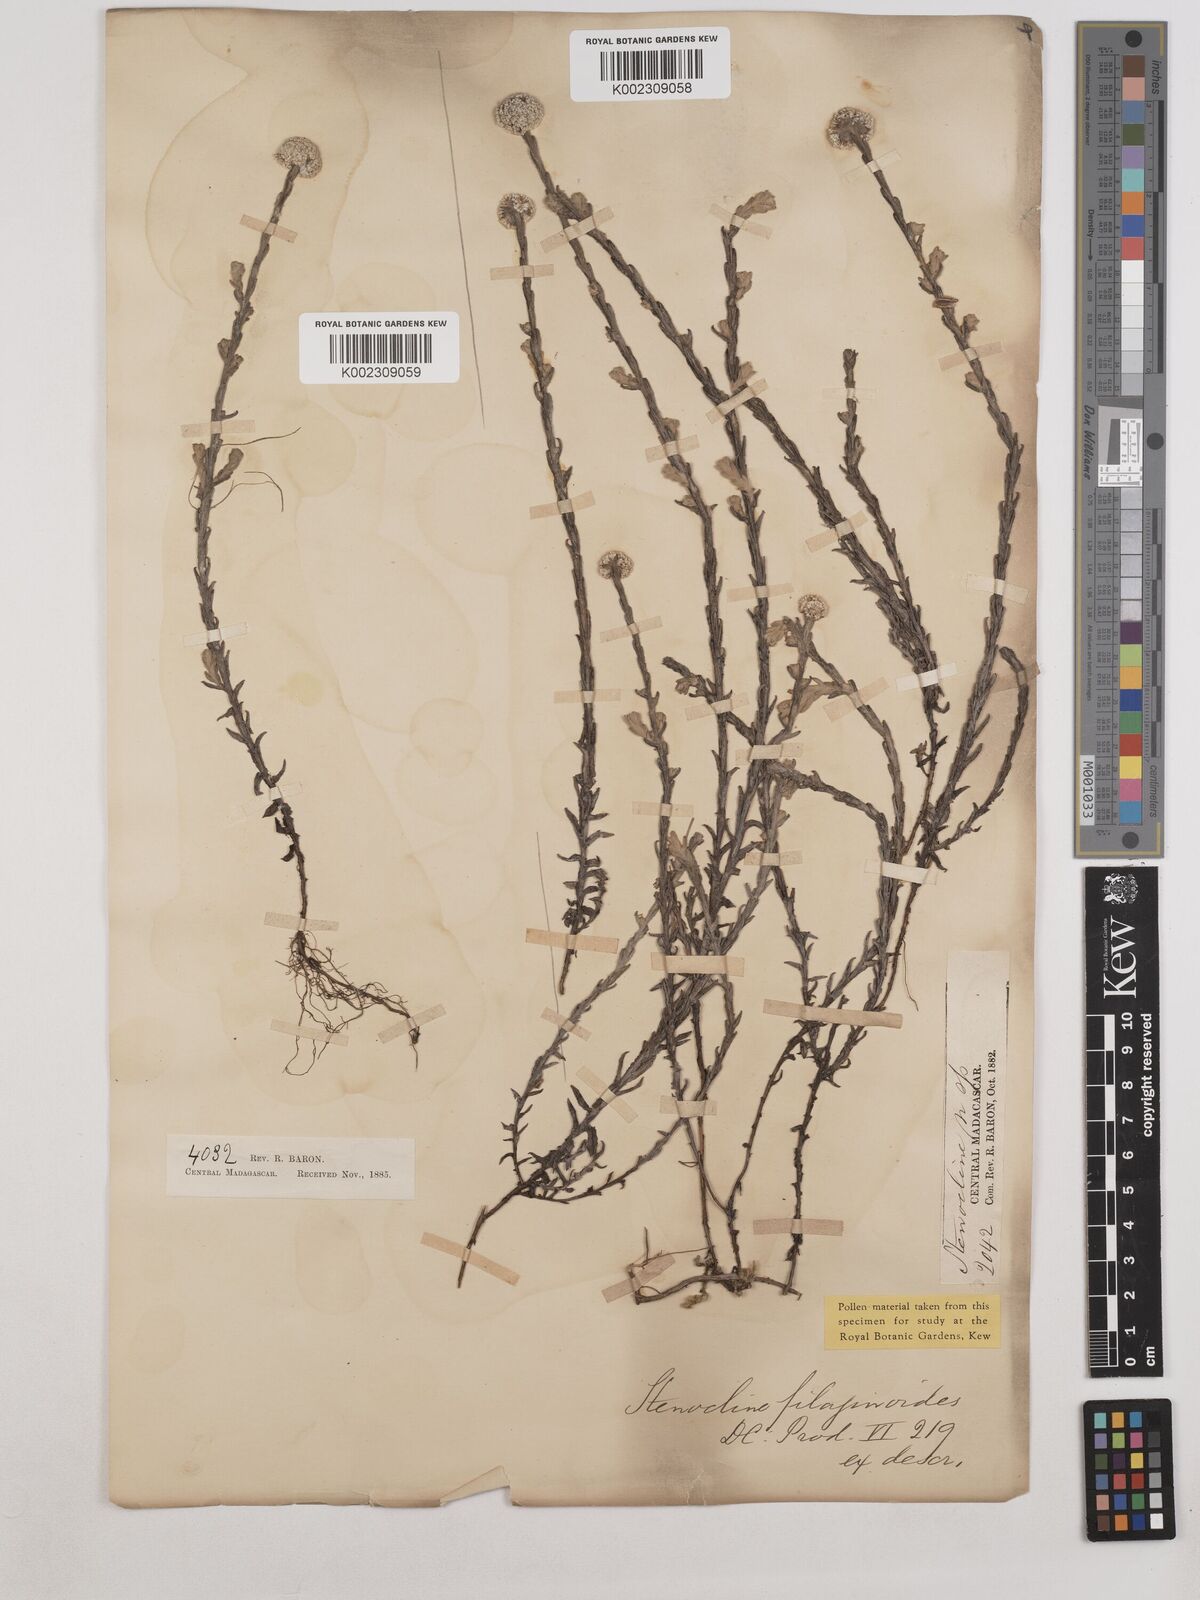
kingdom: Plantae
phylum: Tracheophyta
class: Magnoliopsida
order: Asterales
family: Asteraceae
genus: Helichrysum
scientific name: Helichrysum filaginoides
